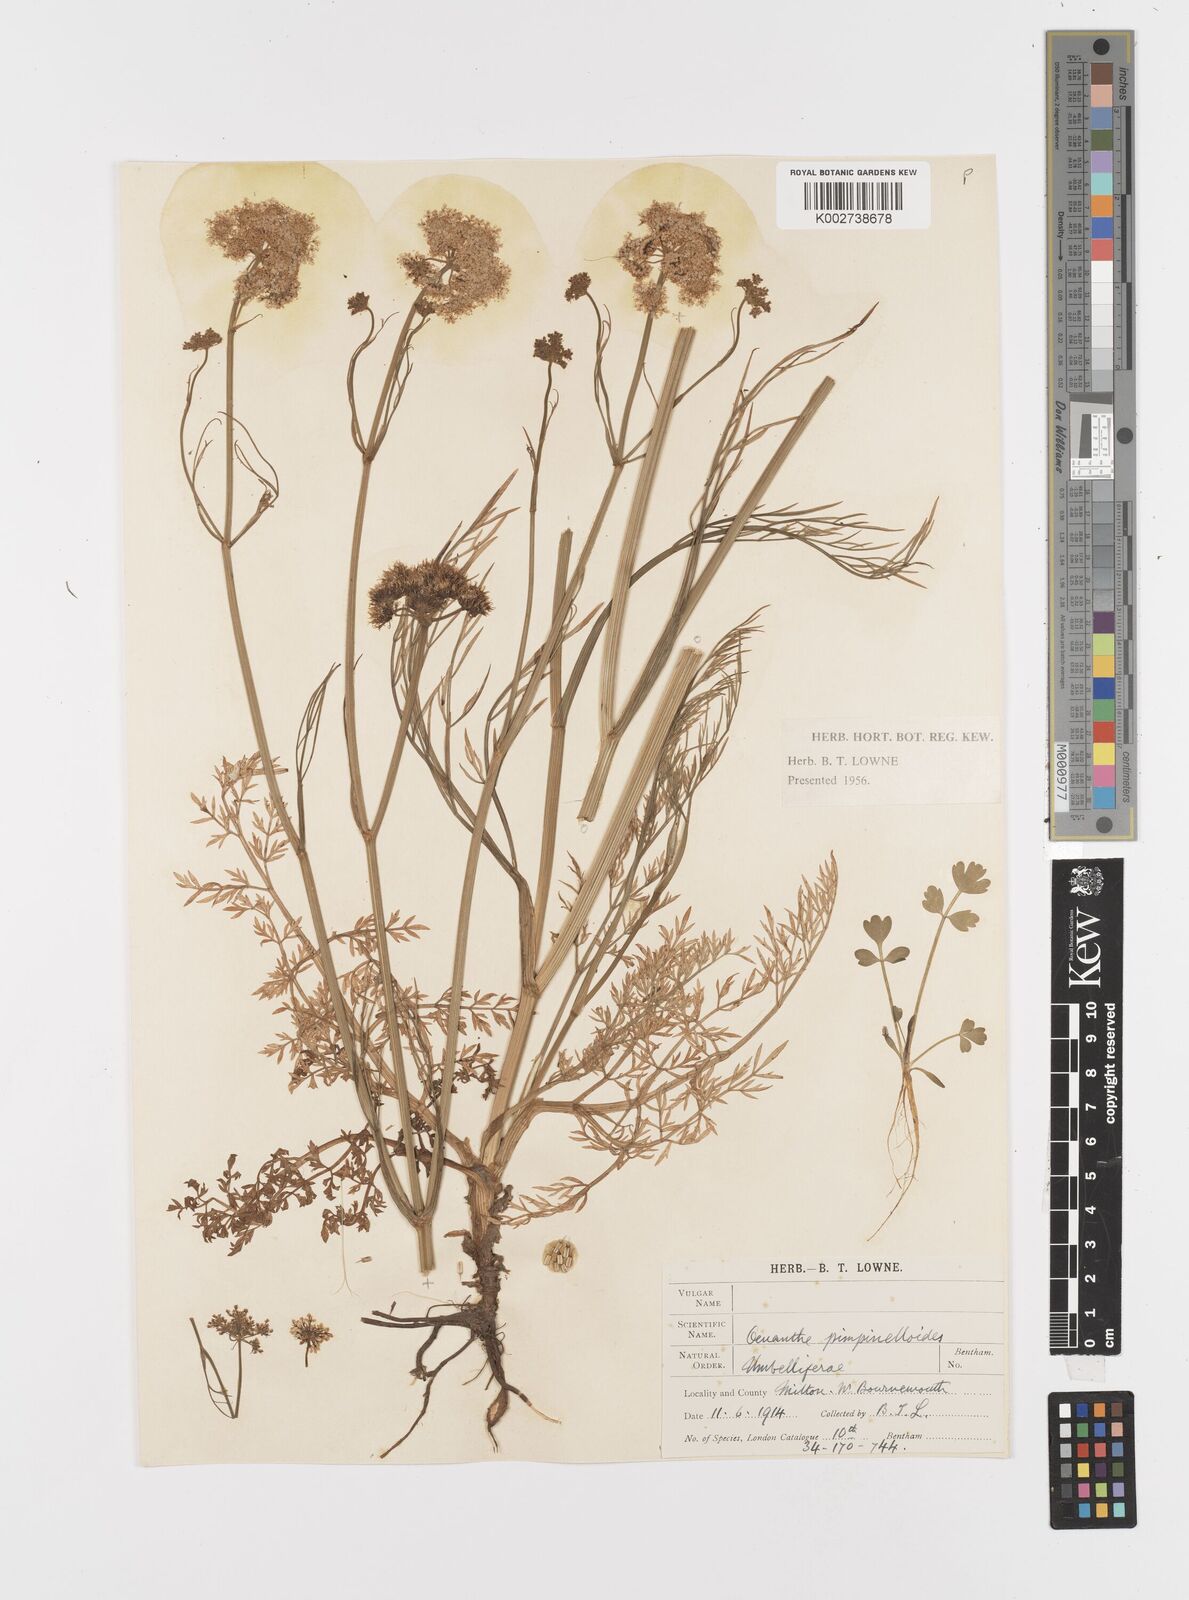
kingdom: Plantae
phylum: Tracheophyta
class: Magnoliopsida
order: Apiales
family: Apiaceae
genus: Oenanthe
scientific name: Oenanthe pimpinelloides
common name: Corky-fruited water-dropwort
